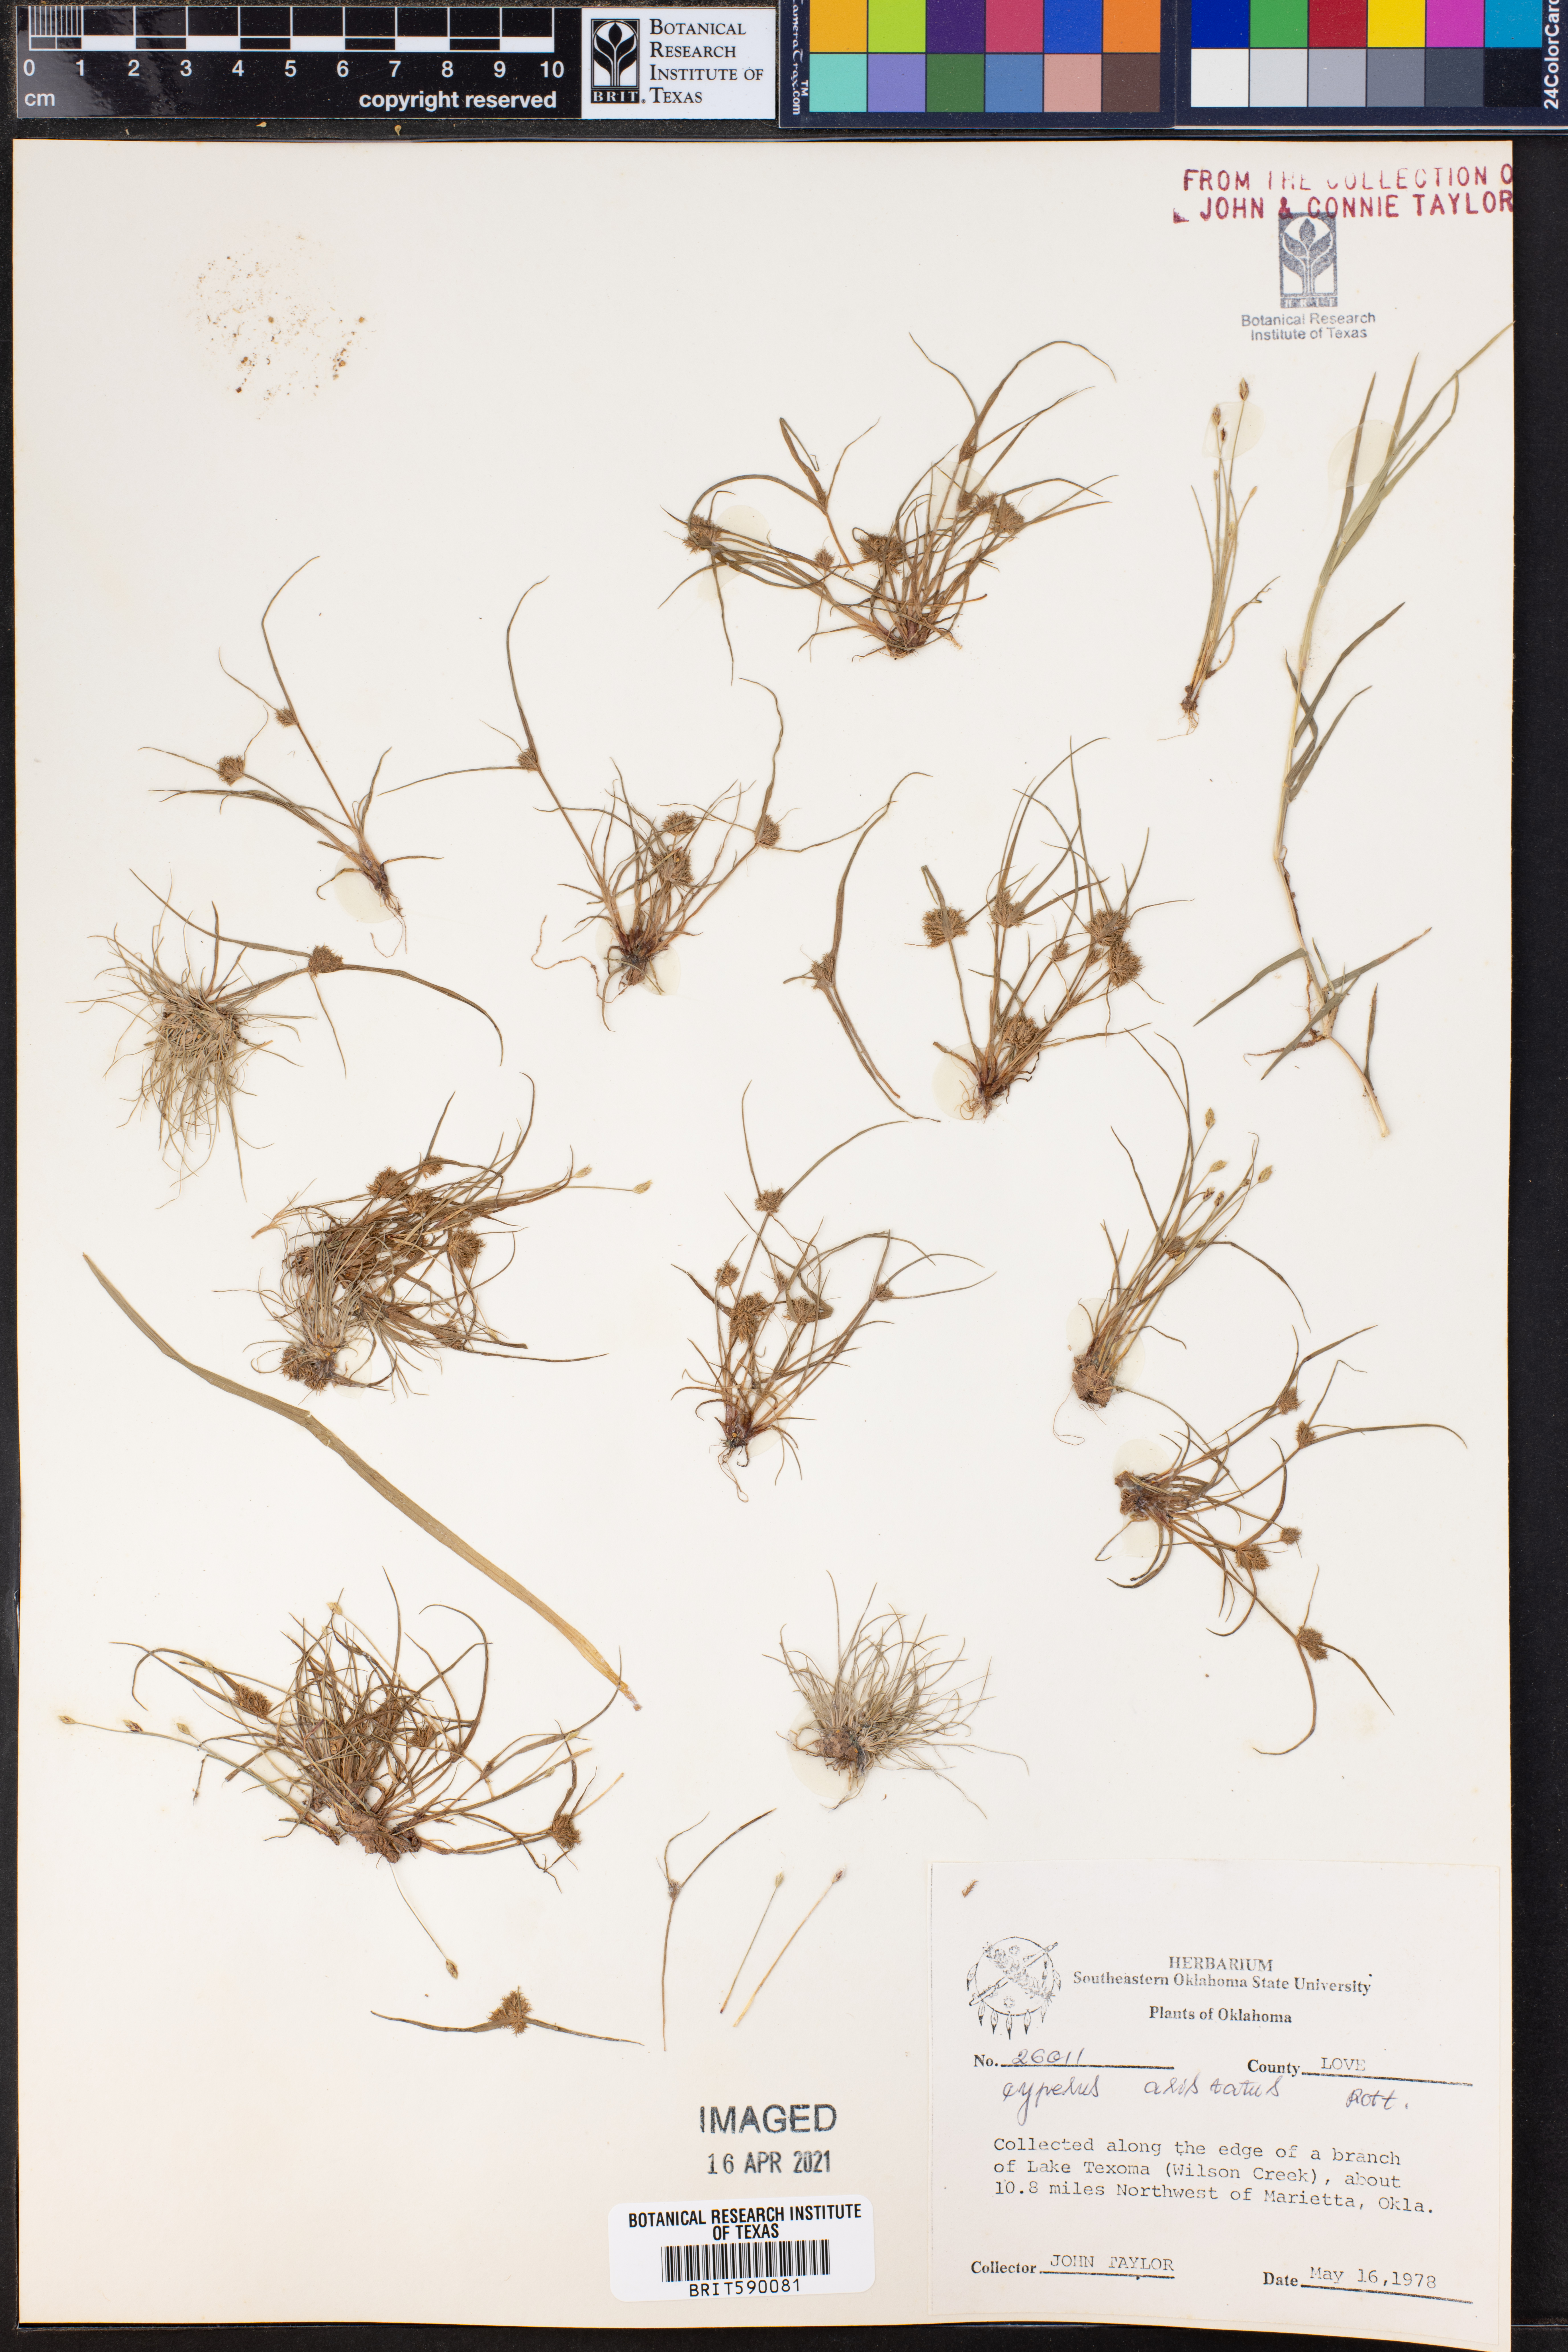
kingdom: Plantae
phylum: Tracheophyta
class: Liliopsida
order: Poales
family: Cyperaceae
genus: Cyperus
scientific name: Cyperus squarrosus
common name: Awned cyperus
